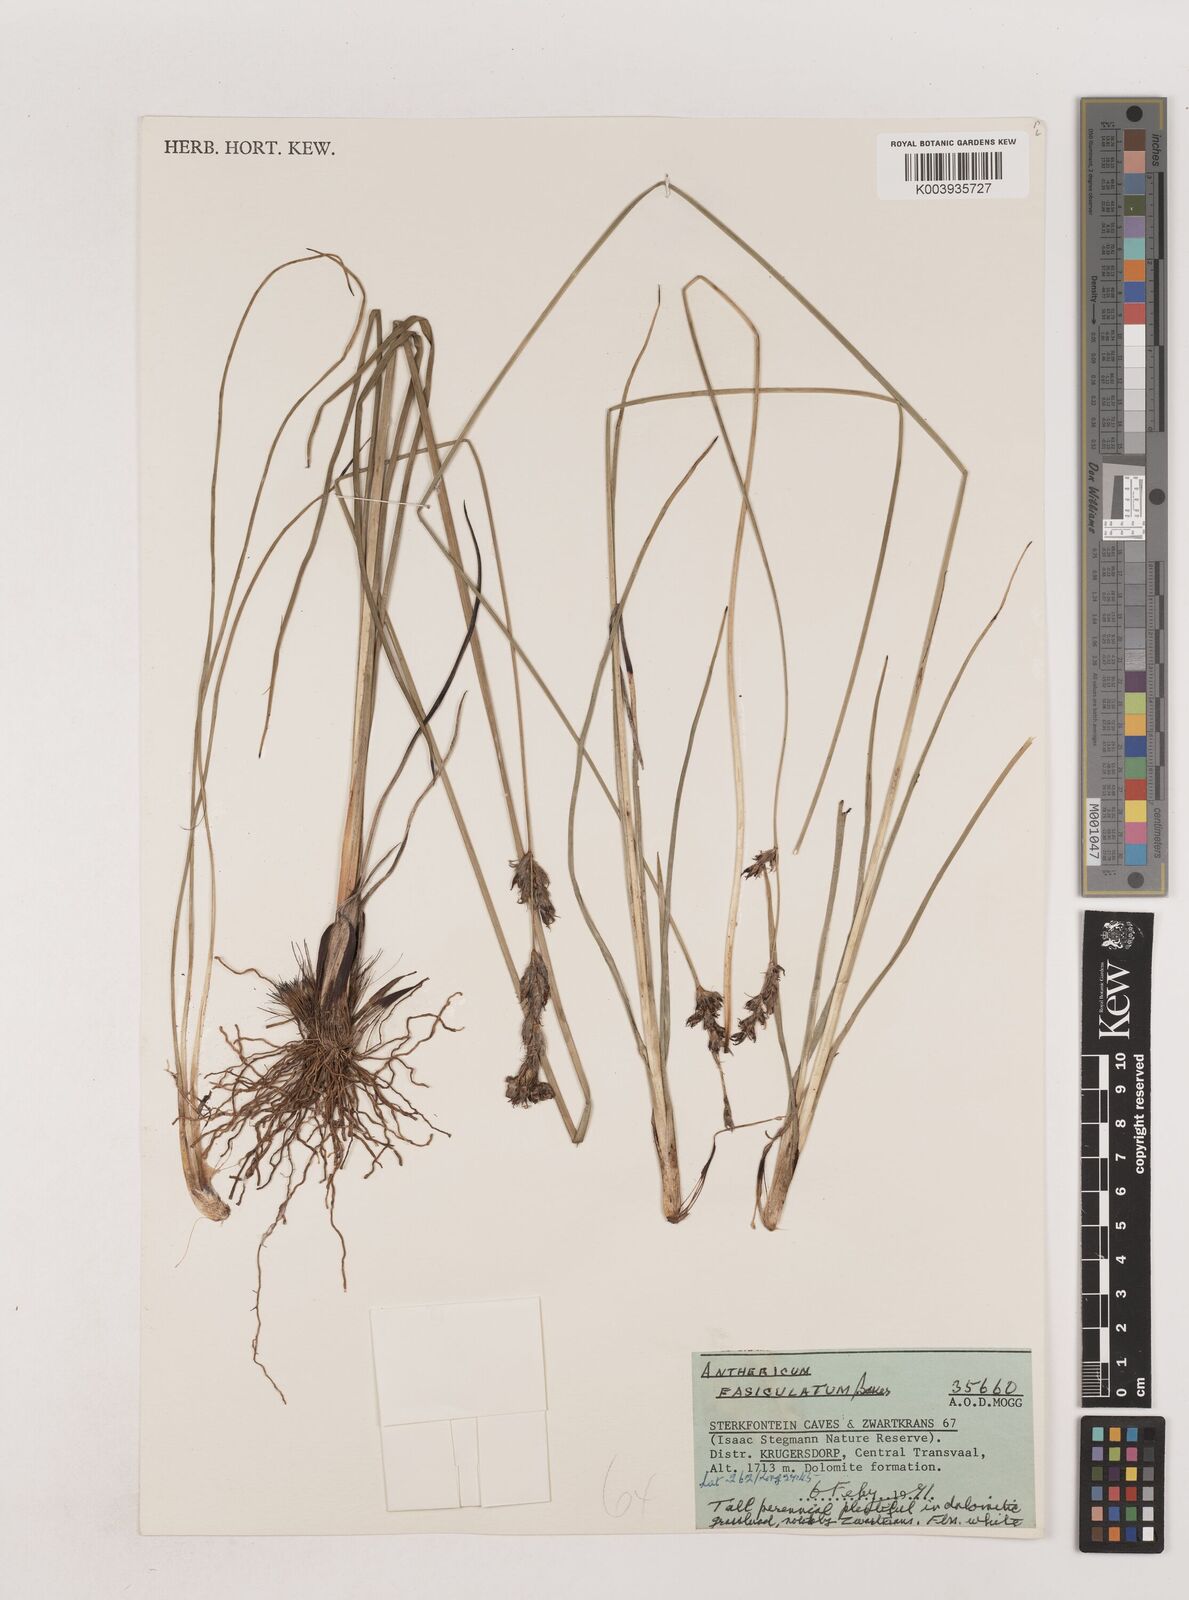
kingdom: Plantae
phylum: Tracheophyta
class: Liliopsida
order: Asparagales
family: Asparagaceae
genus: Chlorophytum
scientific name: Chlorophytum fasciculatum
